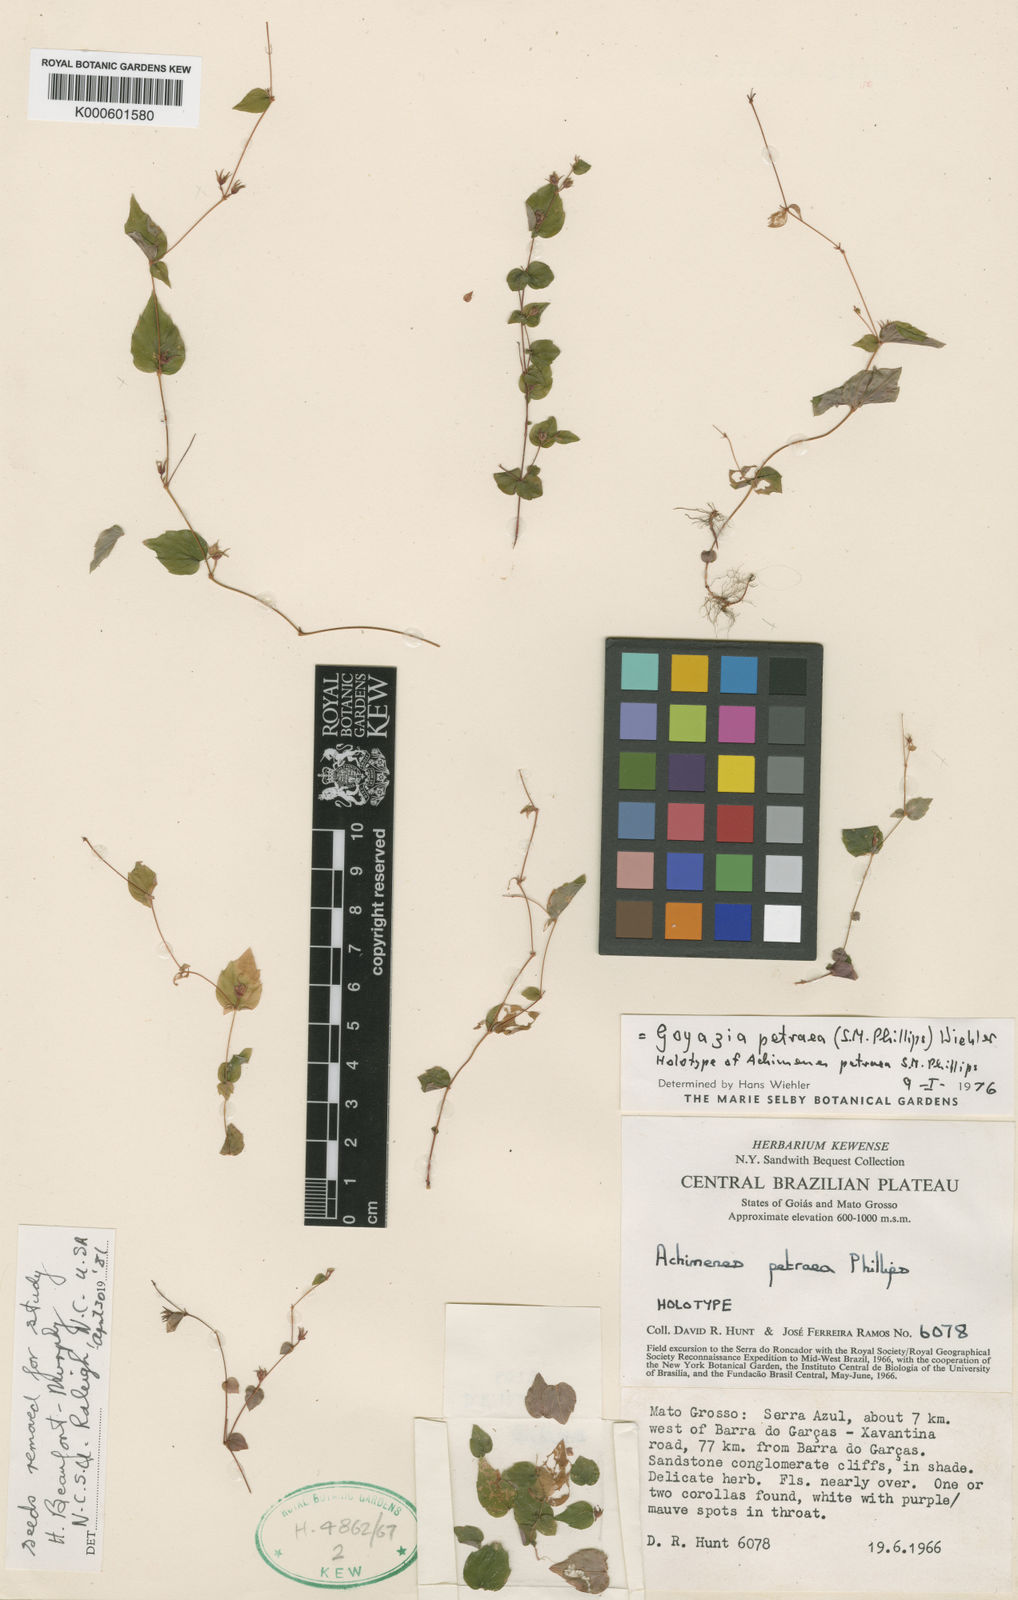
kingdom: Plantae
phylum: Tracheophyta
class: Magnoliopsida
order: Lamiales
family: Gesneriaceae
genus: Goyazia
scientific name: Goyazia petraea
